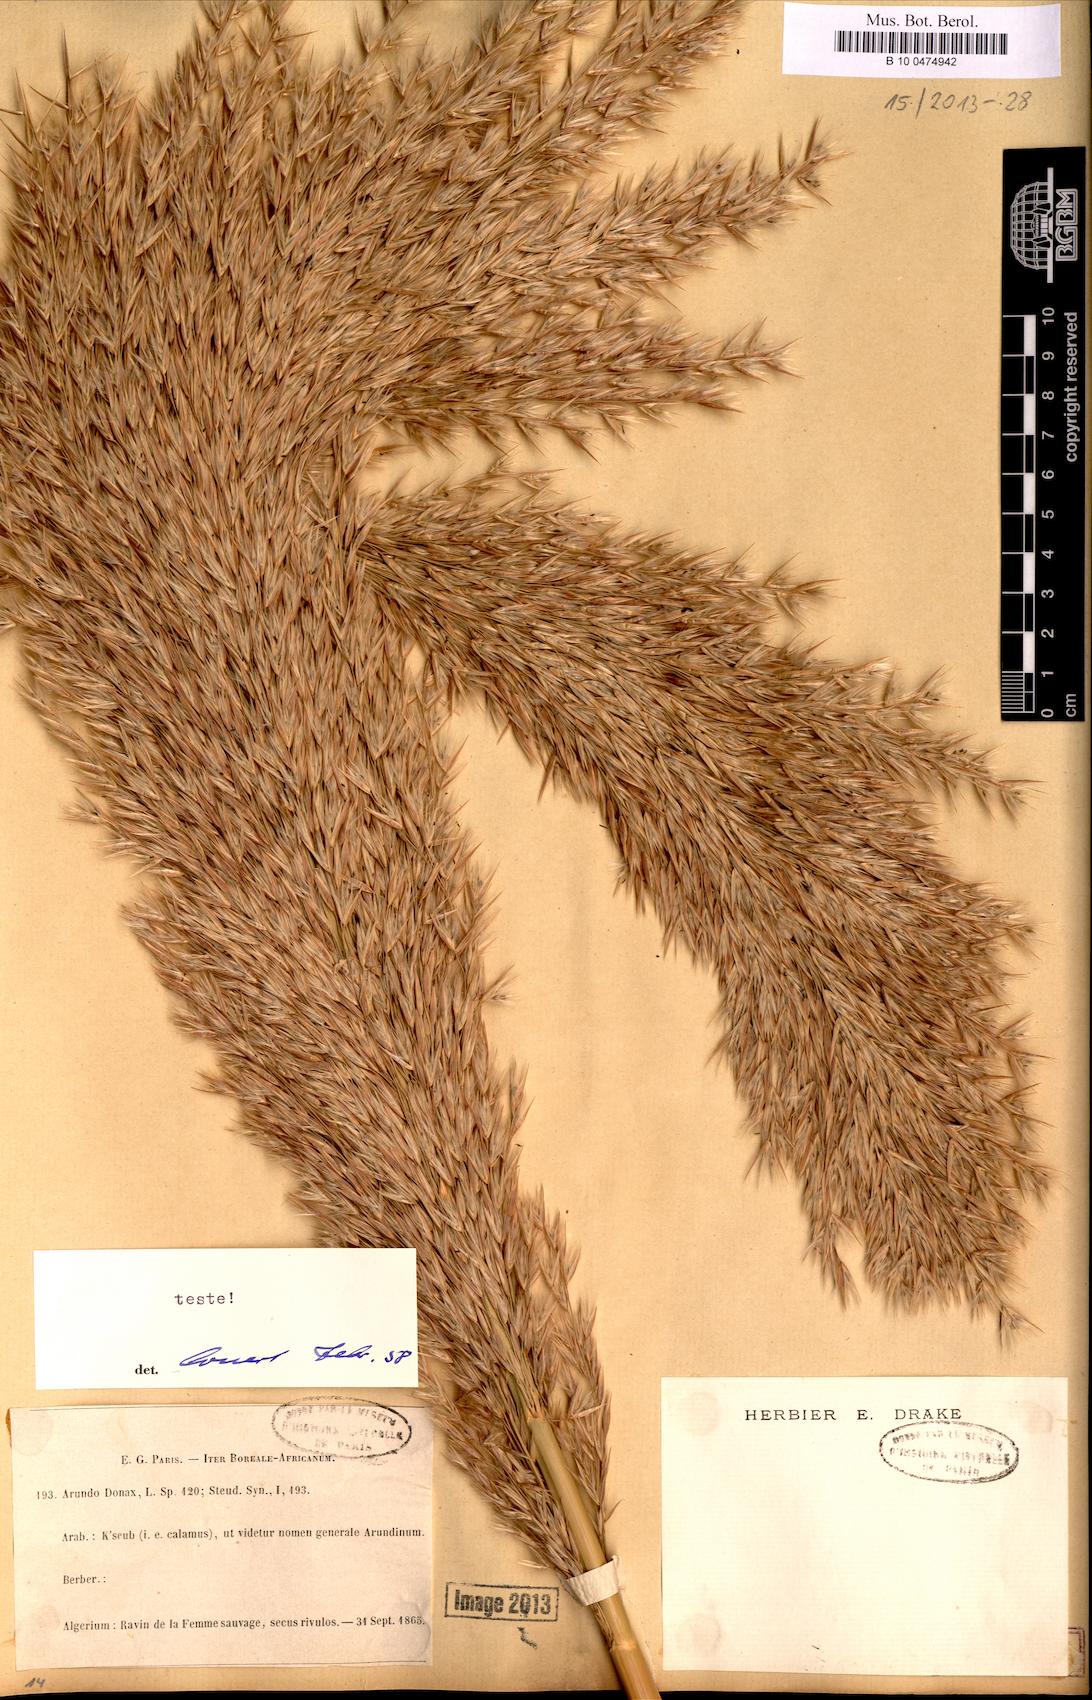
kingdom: Plantae
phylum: Tracheophyta
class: Liliopsida
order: Poales
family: Poaceae
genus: Arundo
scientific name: Arundo donax
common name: Giant reed
